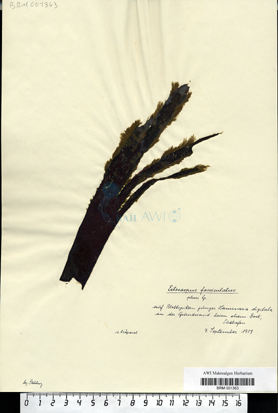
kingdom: Chromista
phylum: Ochrophyta
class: Phaeophyceae
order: Ectocarpales
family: Ectocarpaceae
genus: Ectocarpus
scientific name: Ectocarpus fasciculatus
